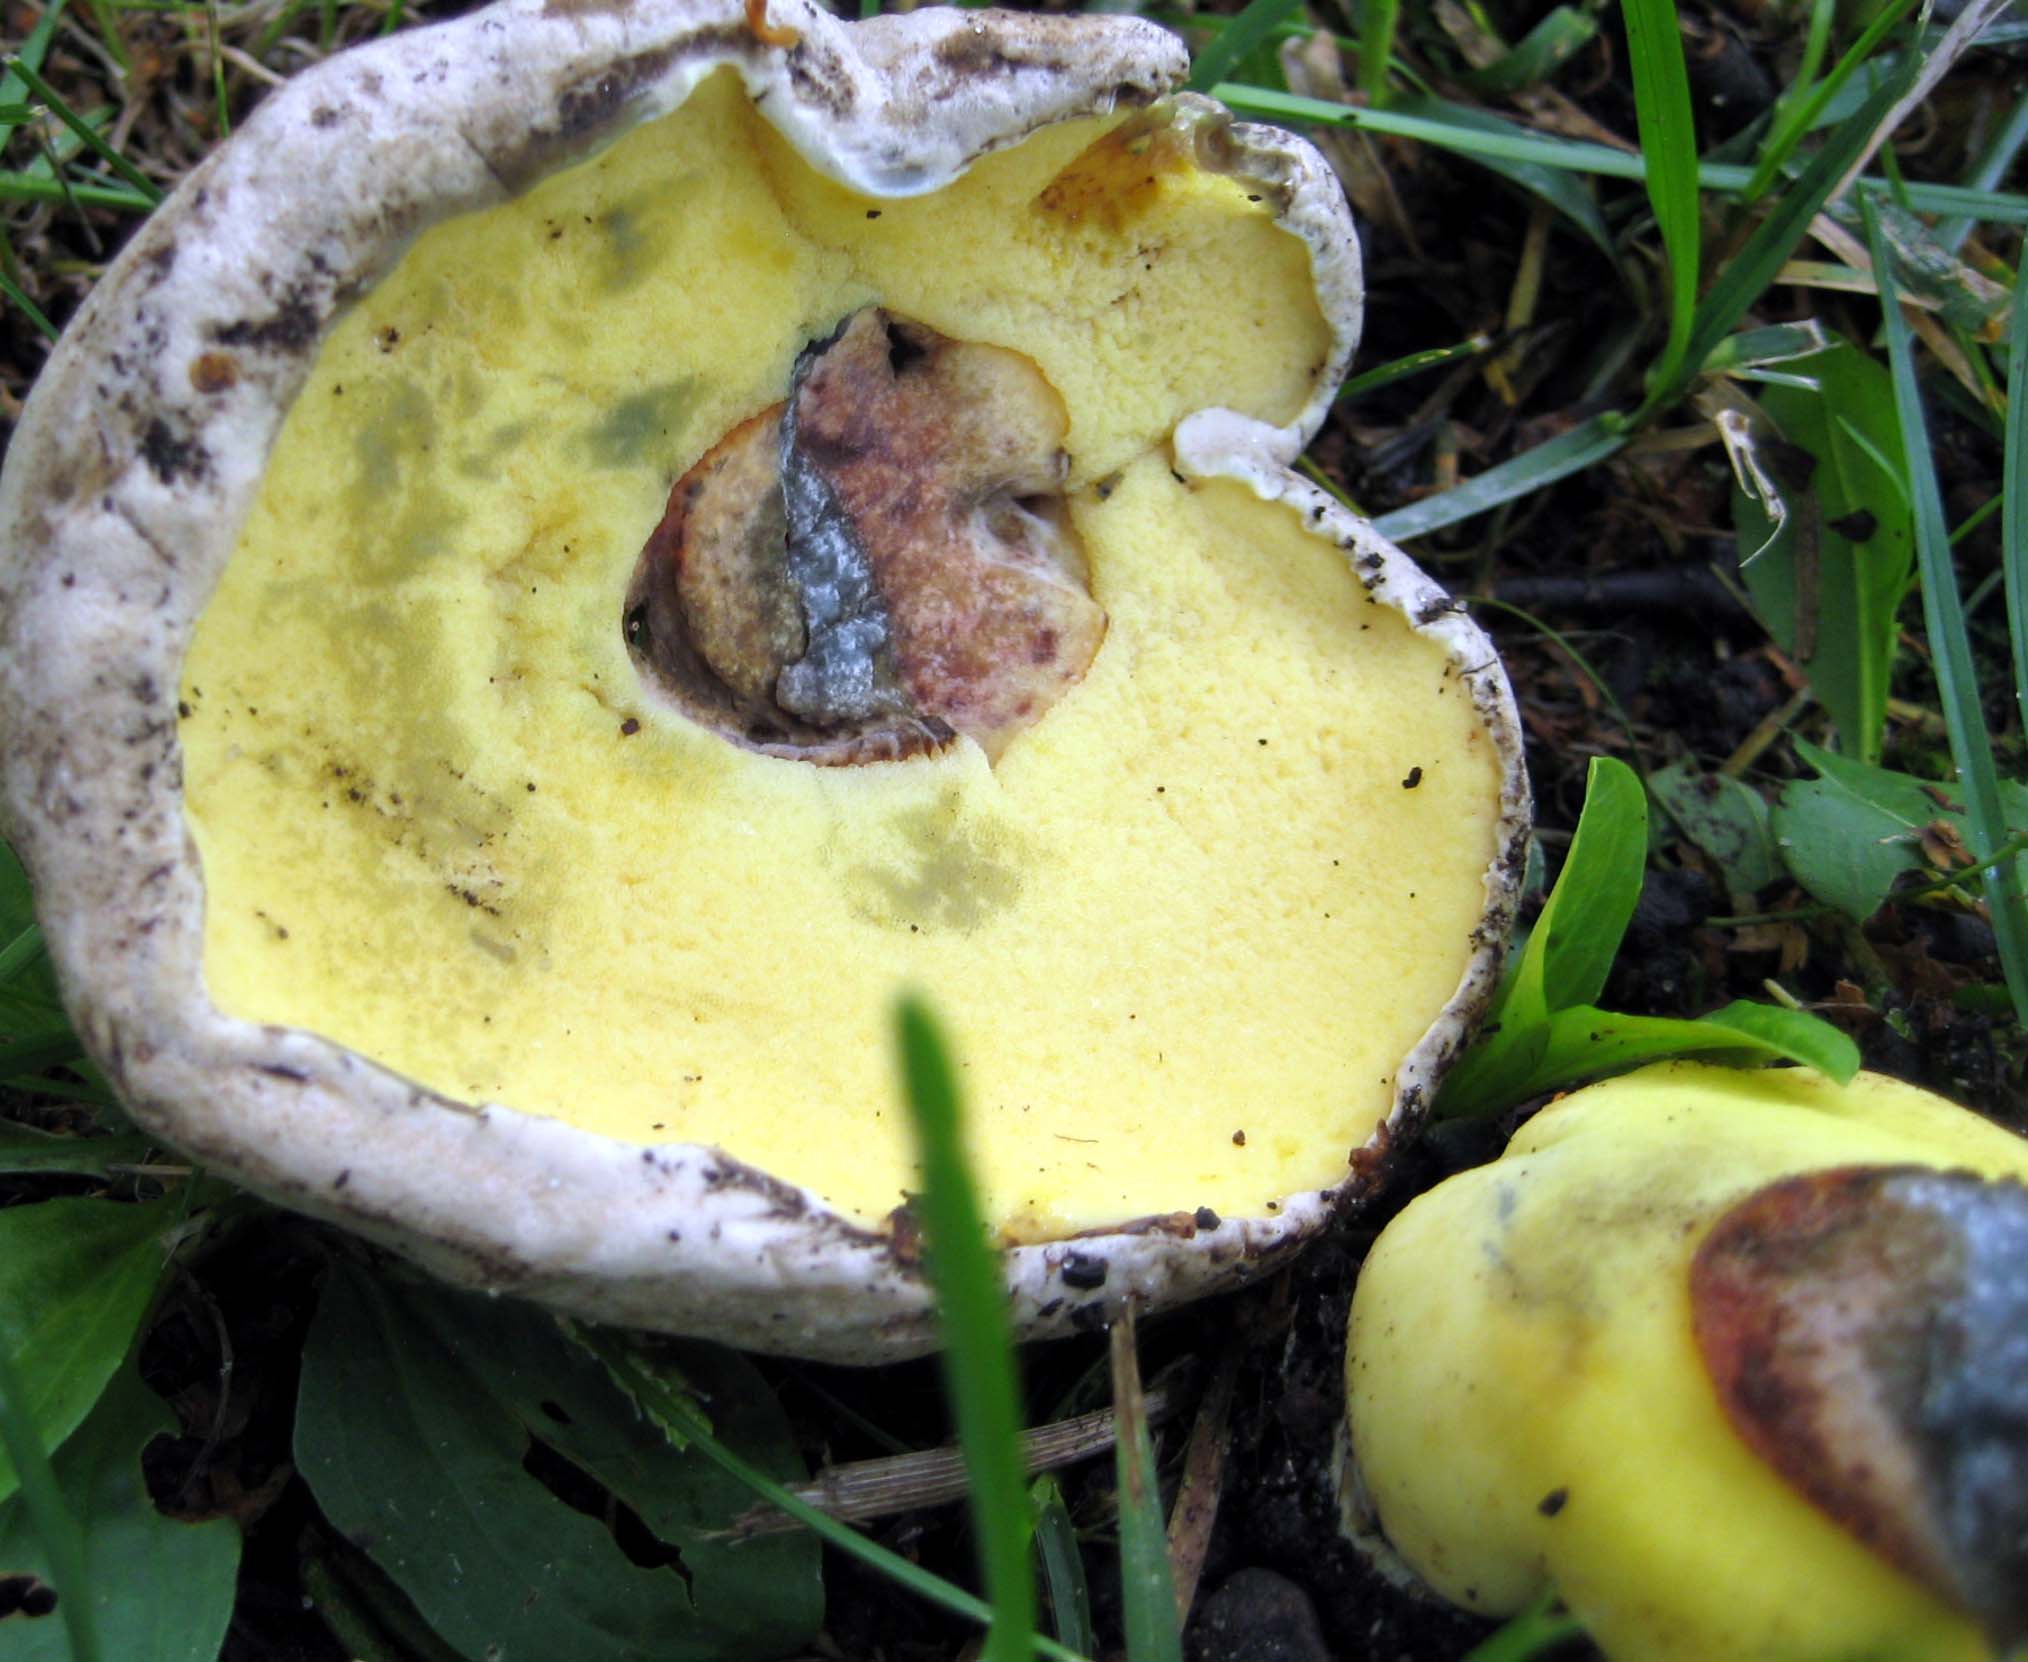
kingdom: Fungi
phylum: Basidiomycota
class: Agaricomycetes
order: Boletales
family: Boletaceae
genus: Caloboletus
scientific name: Caloboletus radicans
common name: rod-rørhat
